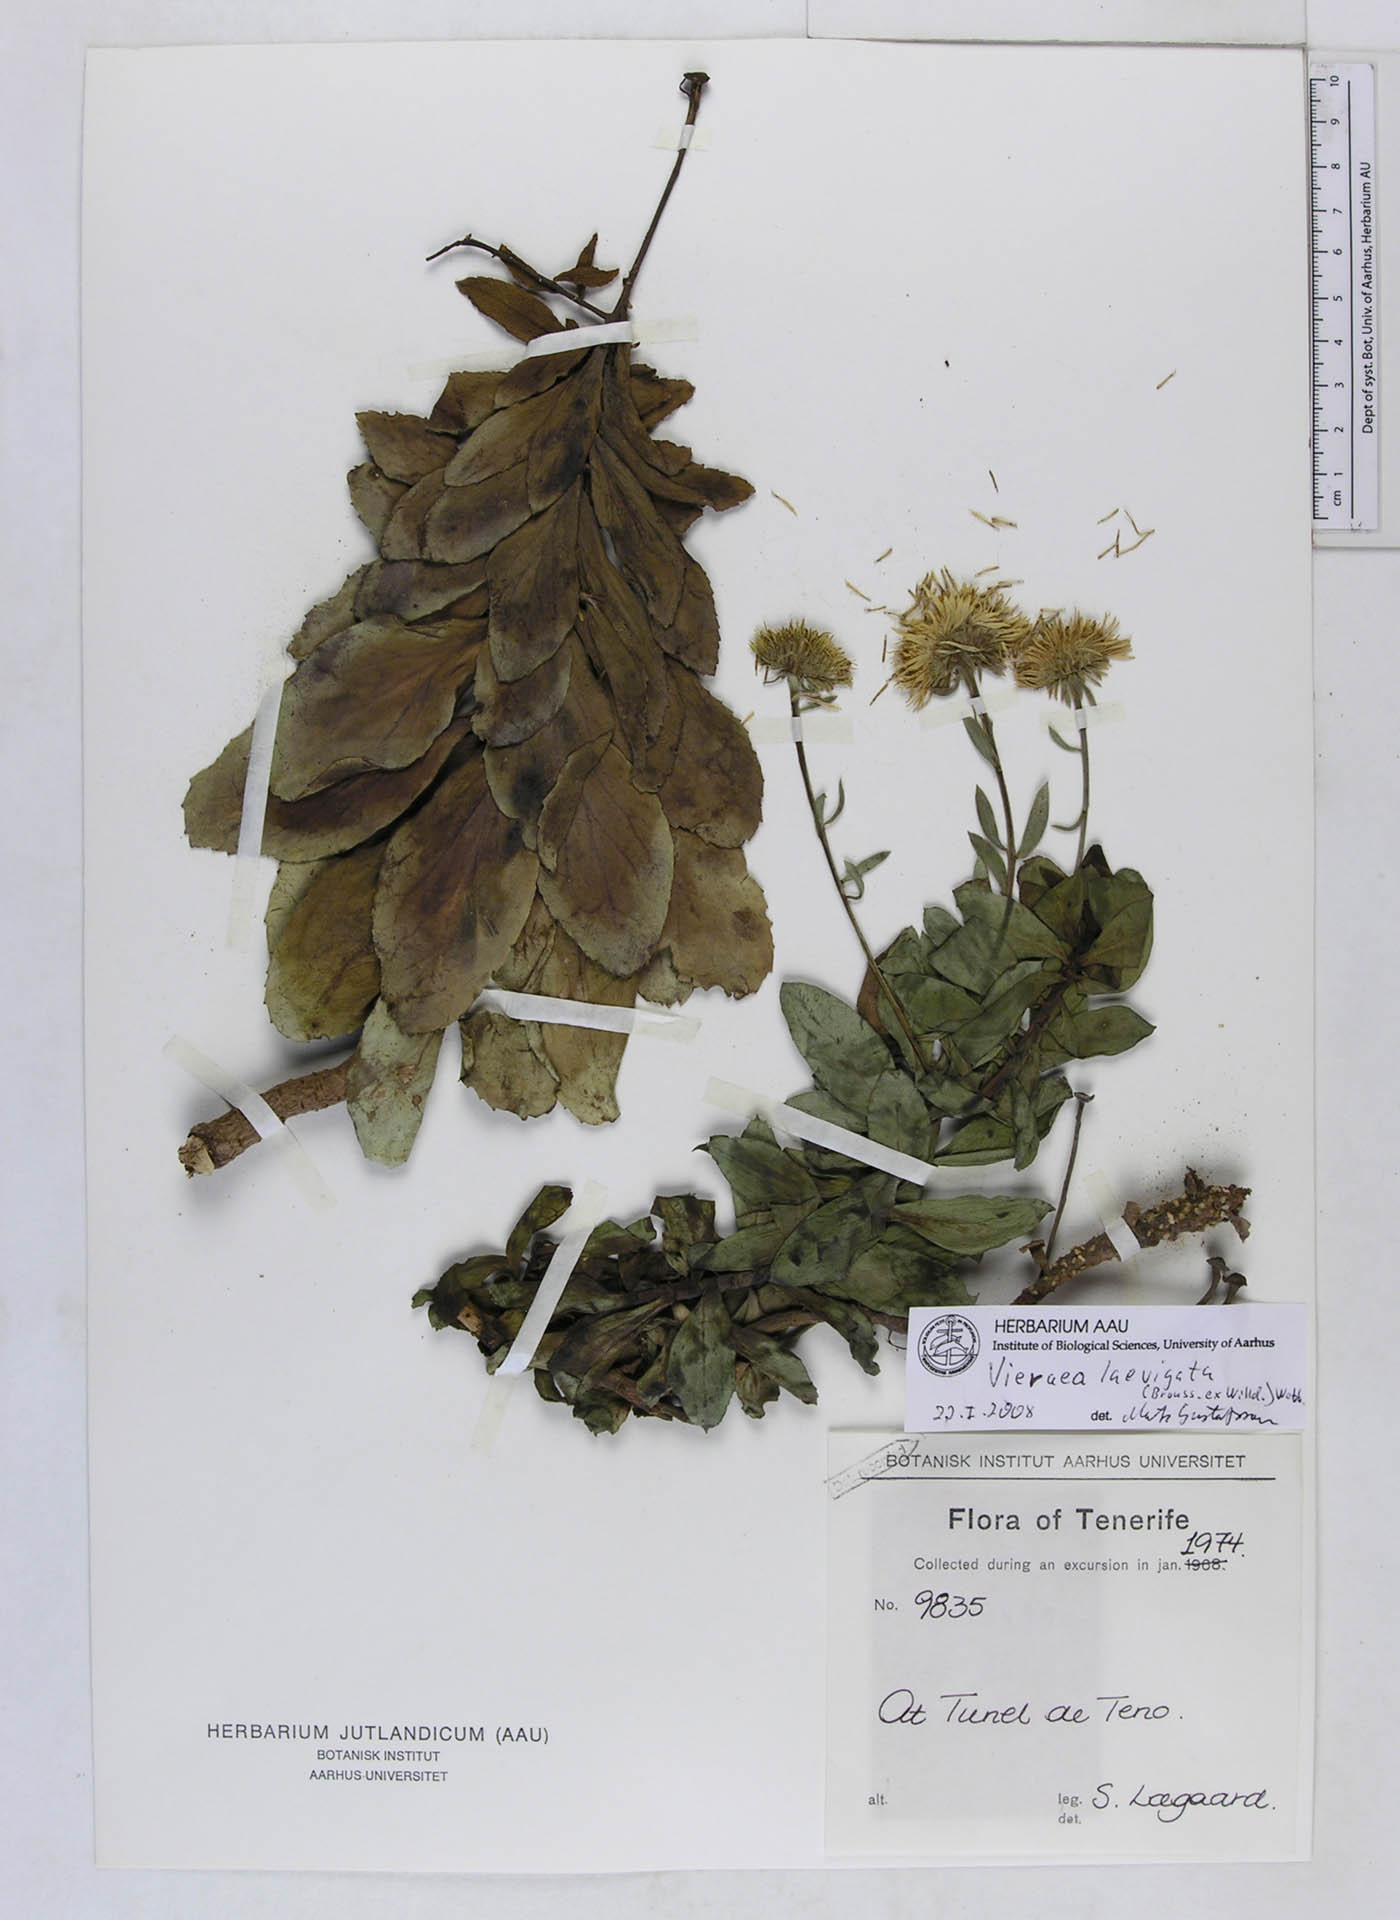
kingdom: Plantae
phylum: Tracheophyta
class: Magnoliopsida
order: Asterales
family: Asteraceae
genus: Vieraea
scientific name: Vieraea laevigata
